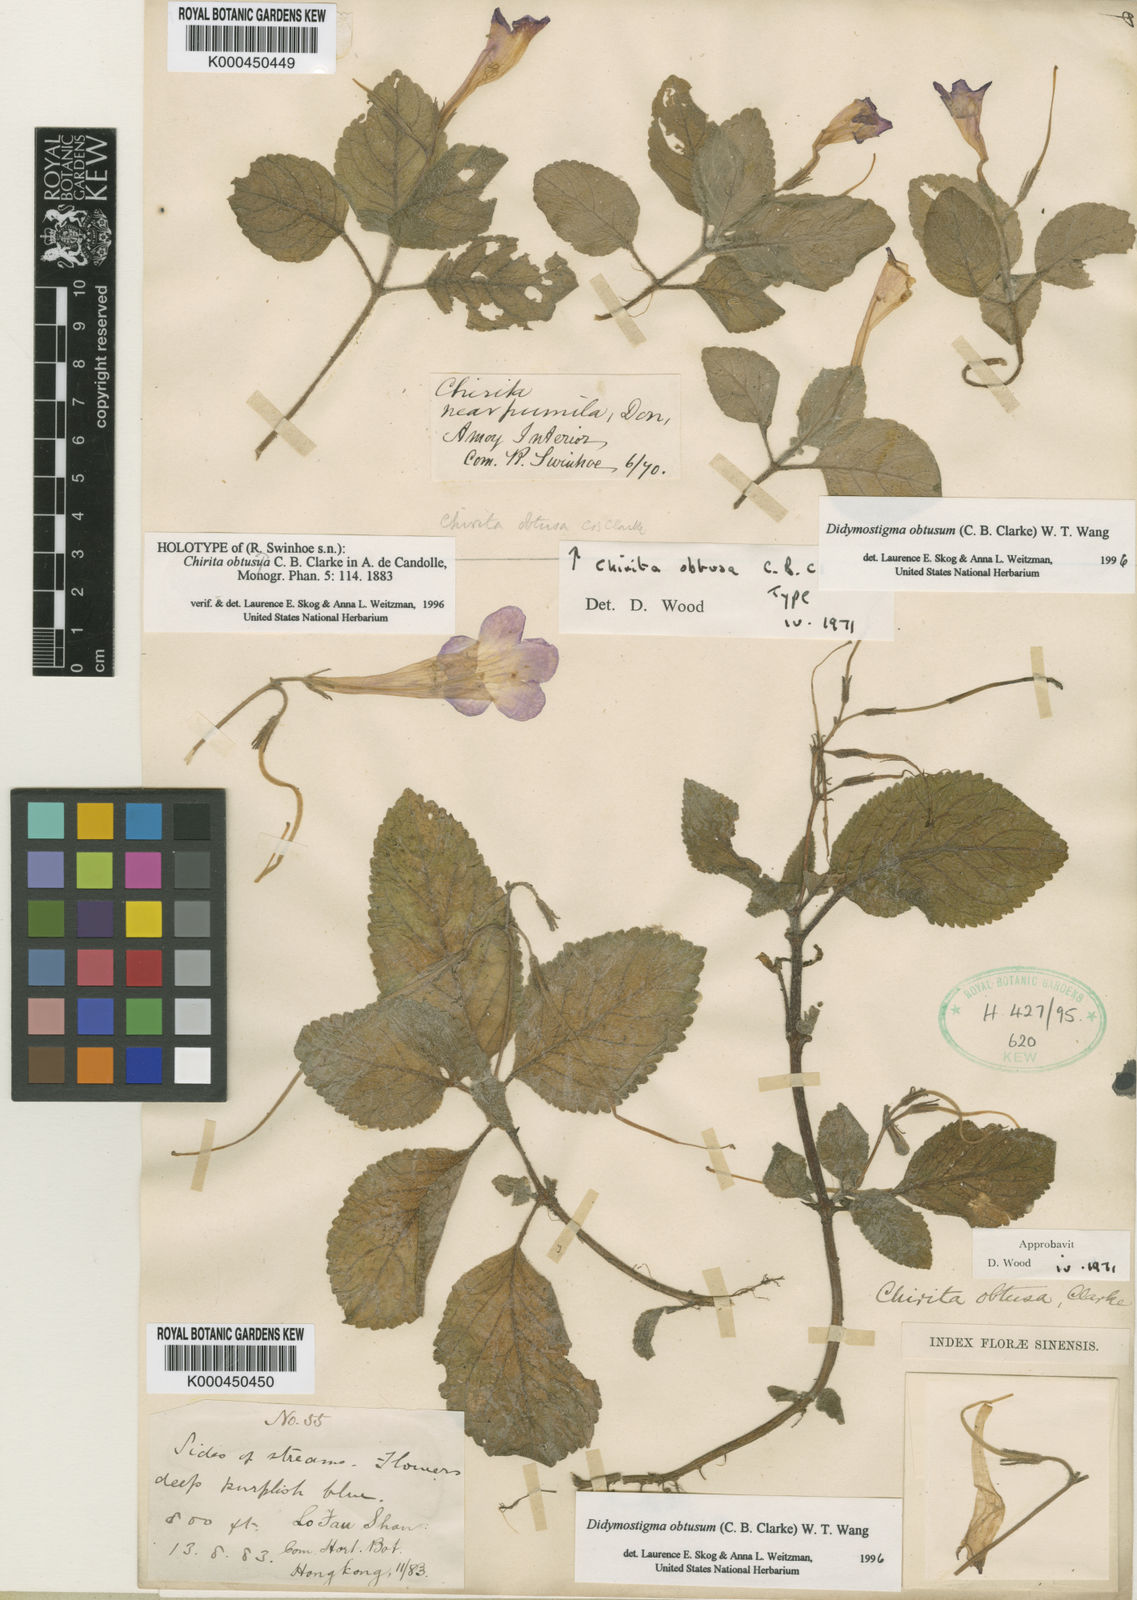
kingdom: Plantae
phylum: Tracheophyta
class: Magnoliopsida
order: Lamiales
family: Gesneriaceae
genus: Didymostigma
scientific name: Didymostigma obtusum
